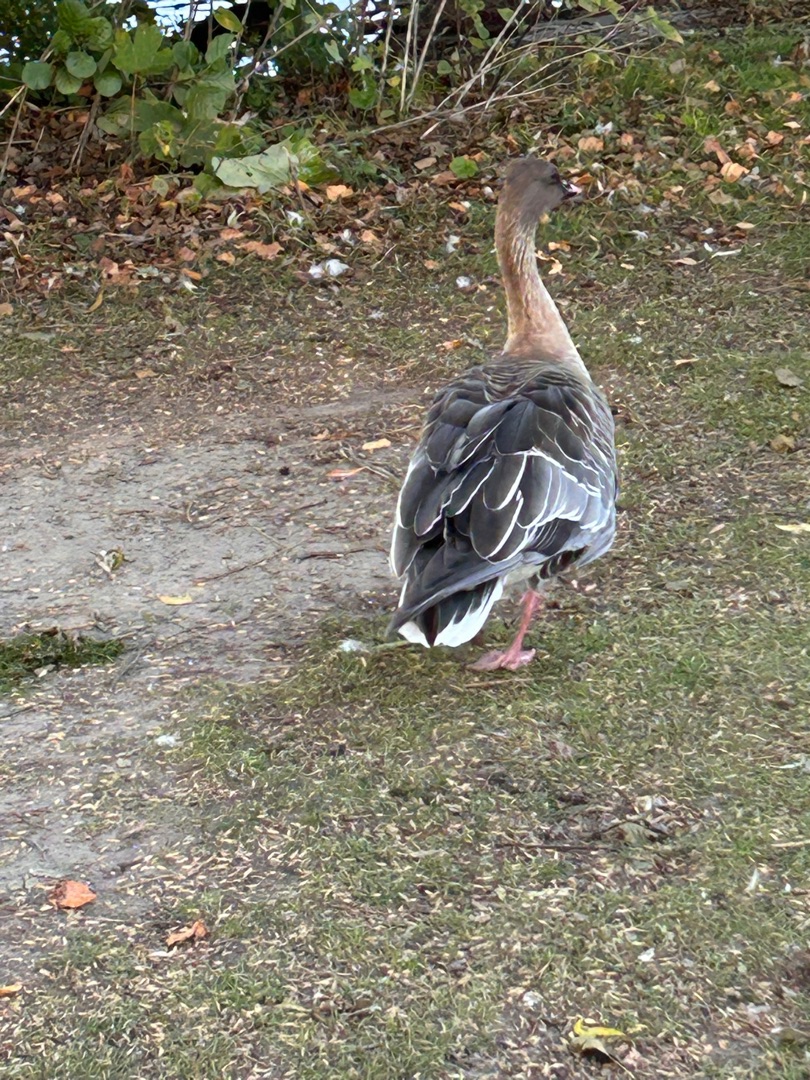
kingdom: Animalia
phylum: Chordata
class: Aves
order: Anseriformes
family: Anatidae
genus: Anser
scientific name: Anser brachyrhynchus
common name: Kortnæbbet gås
